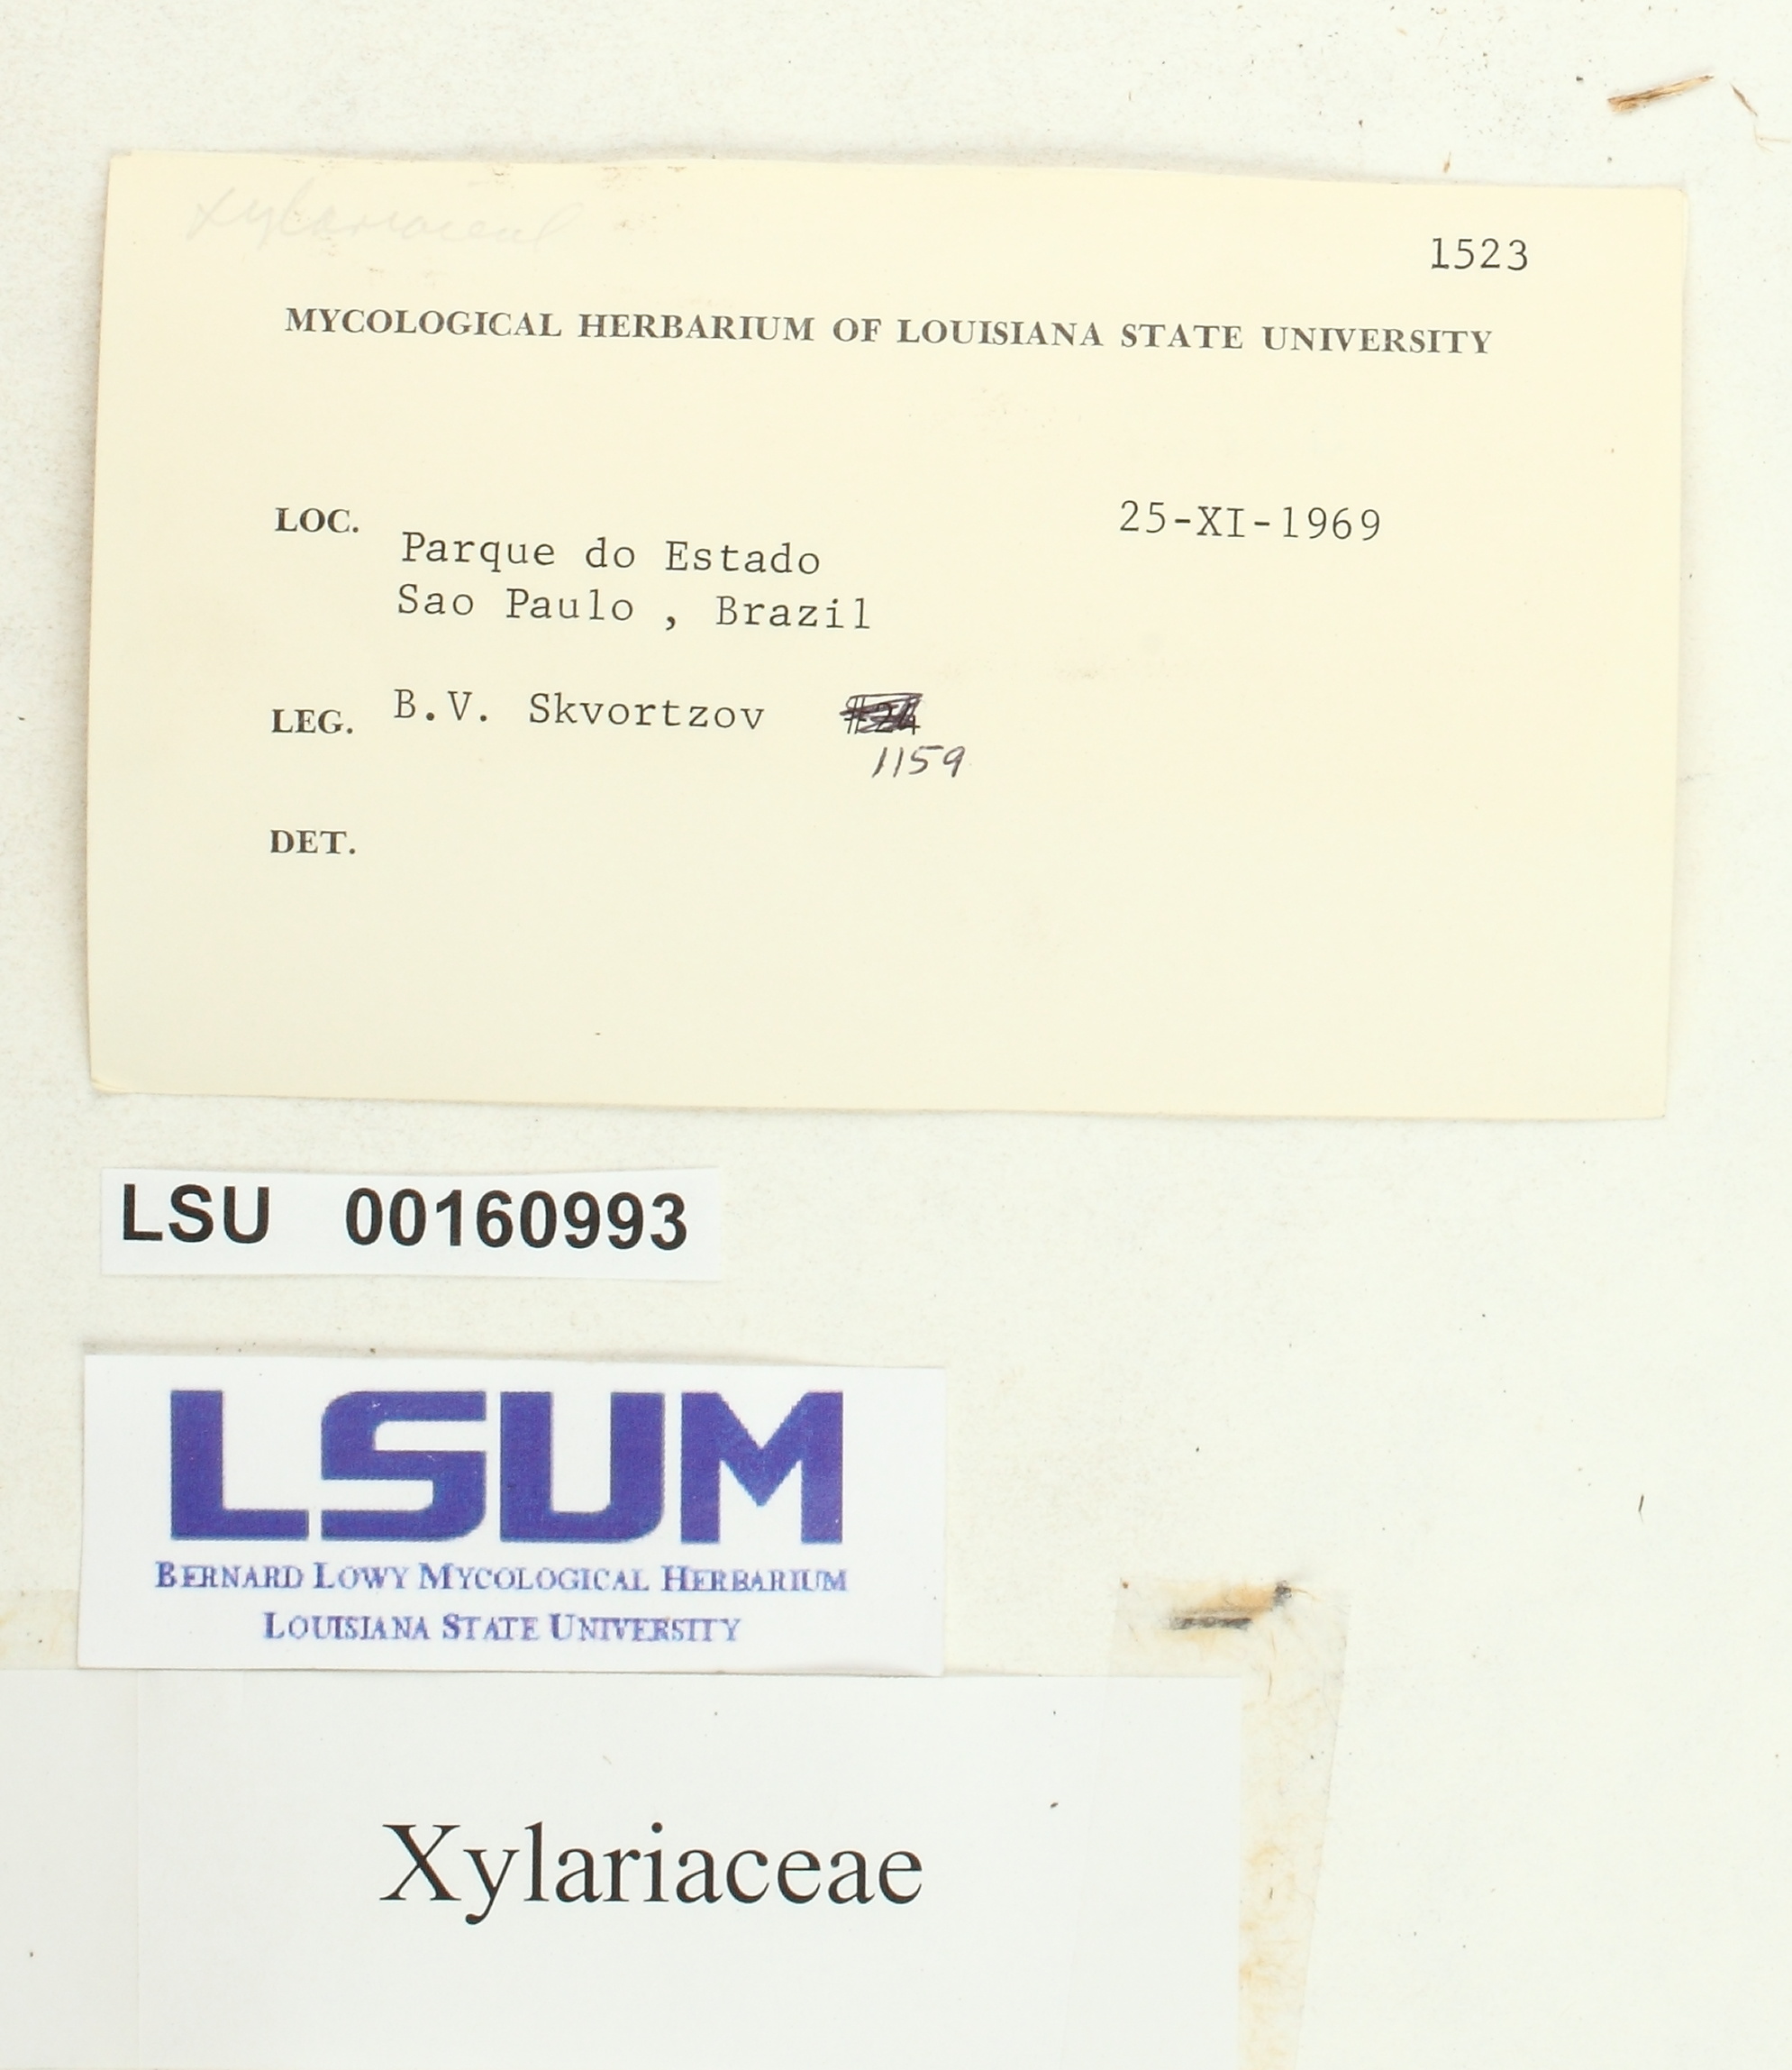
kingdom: Fungi
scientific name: Fungi
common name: Fungi
